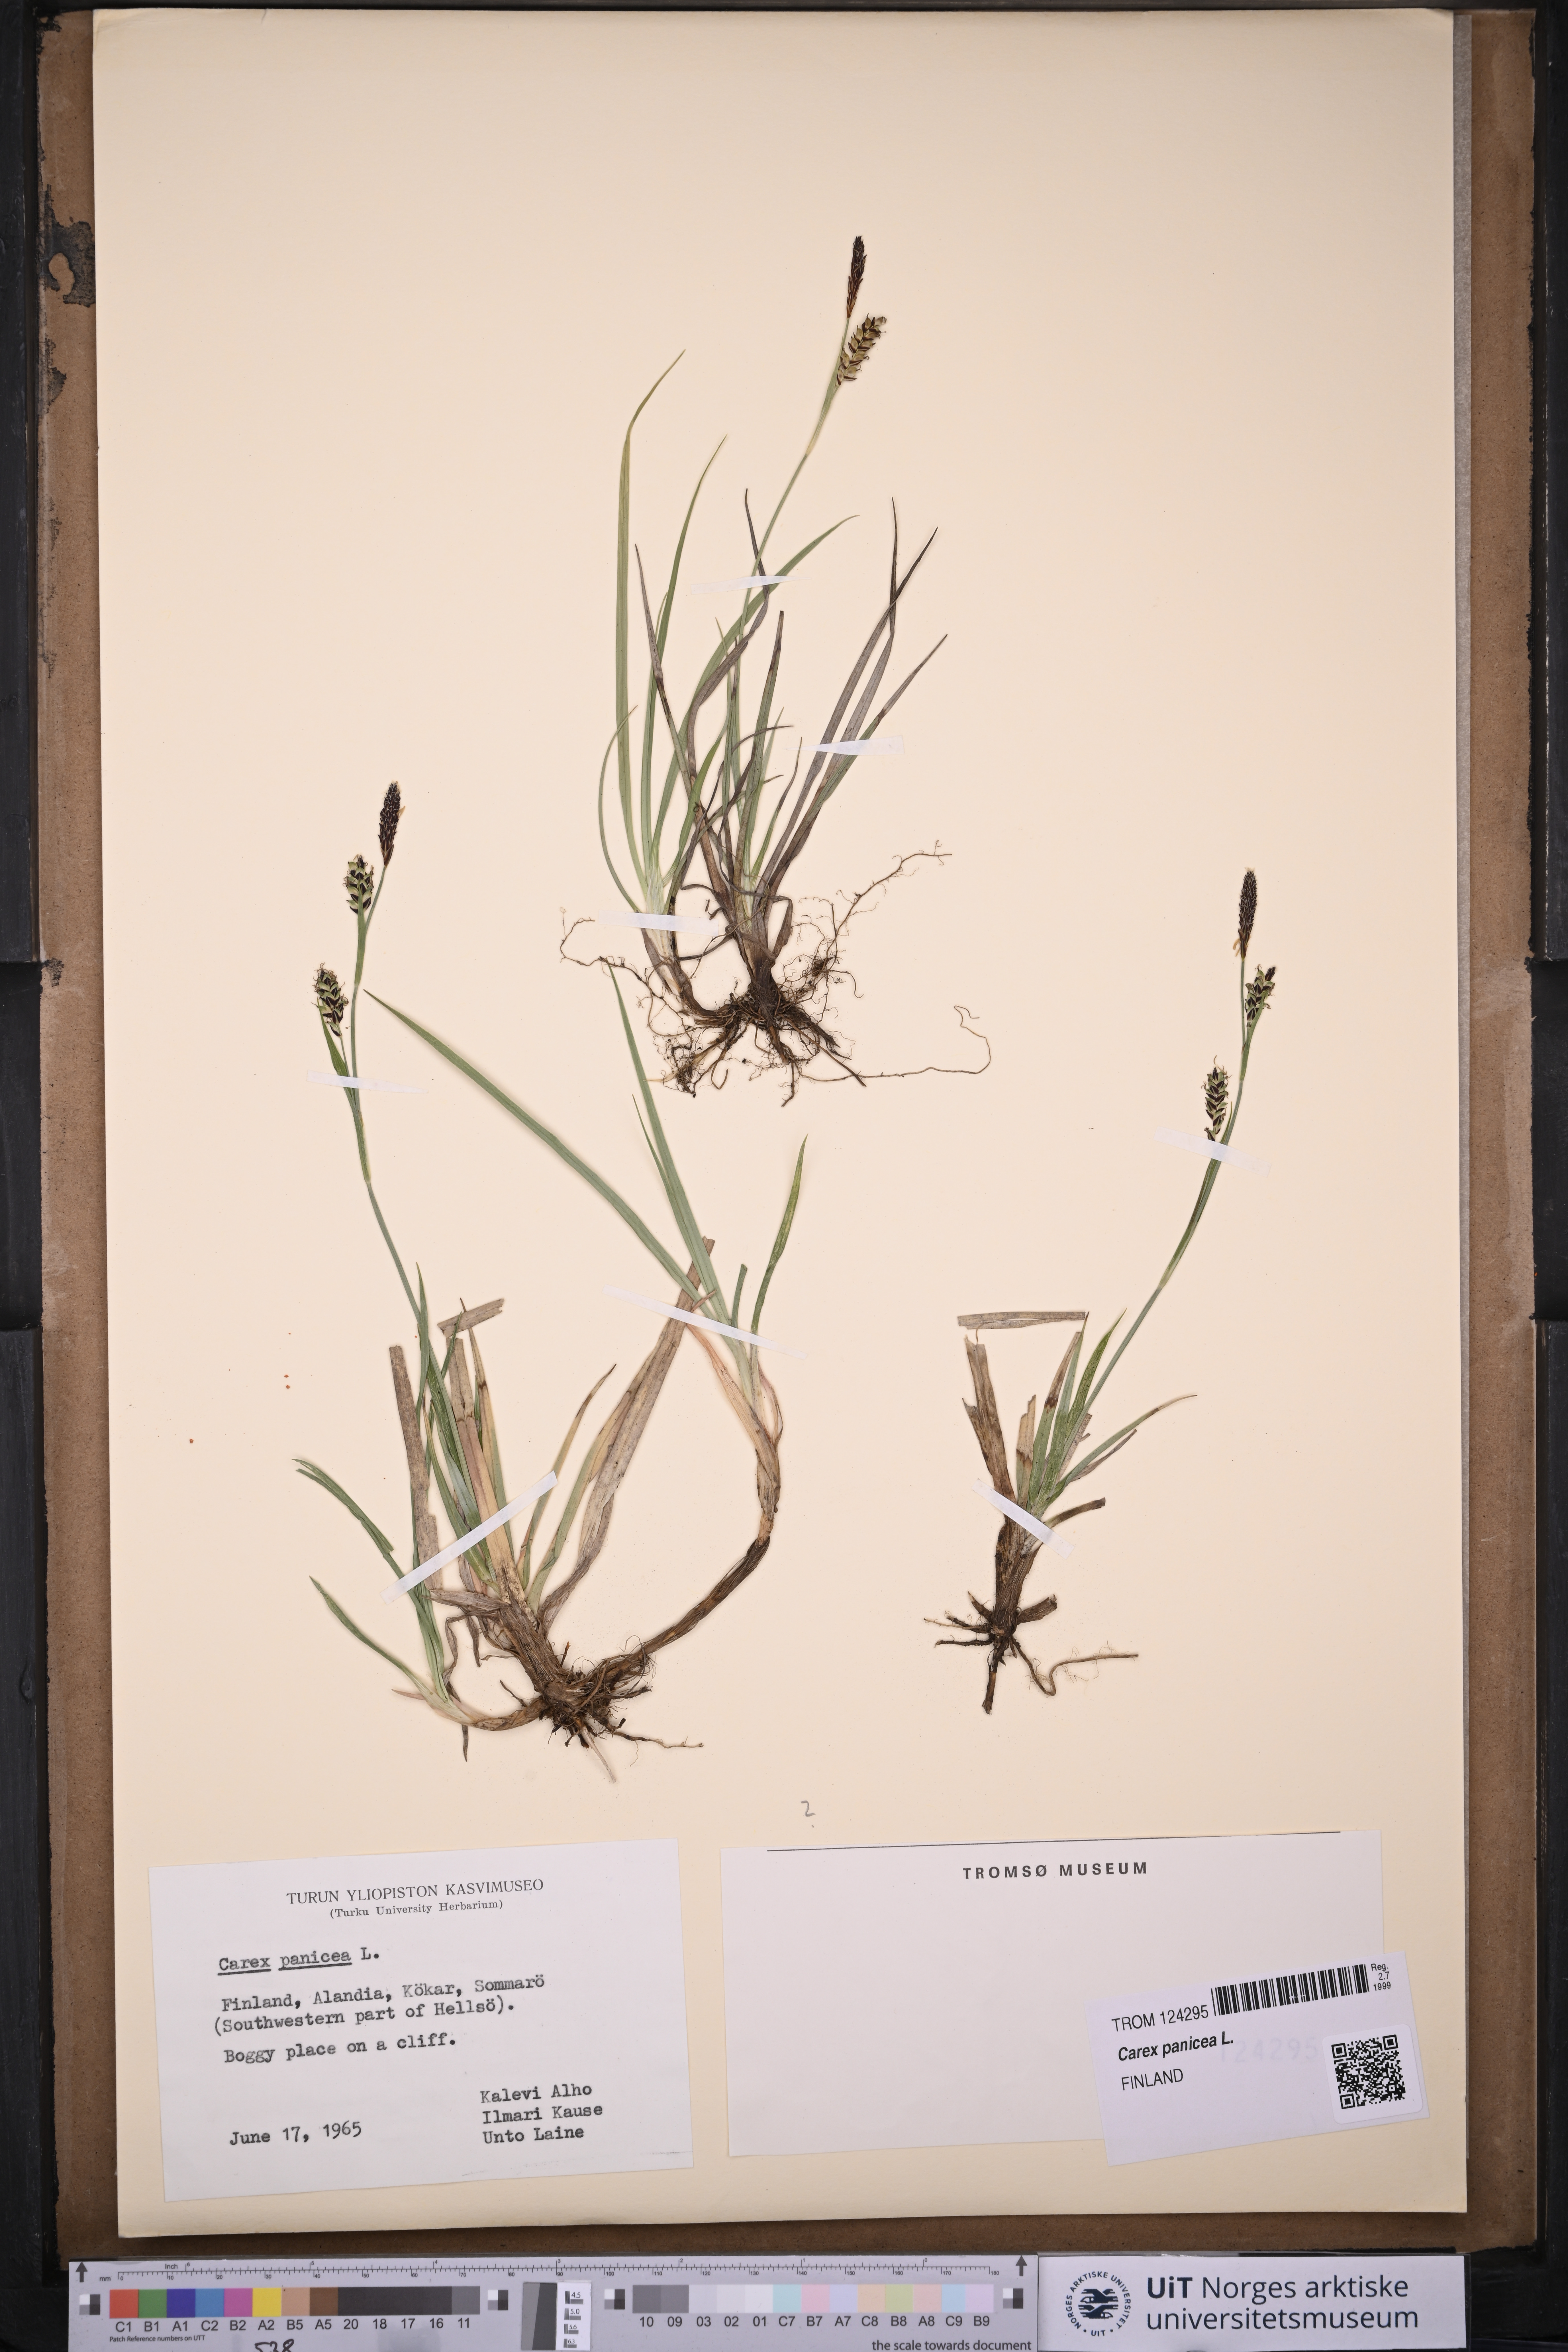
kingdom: Plantae
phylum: Tracheophyta
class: Liliopsida
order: Poales
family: Cyperaceae
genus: Carex
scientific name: Carex panicea
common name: Carnation sedge
